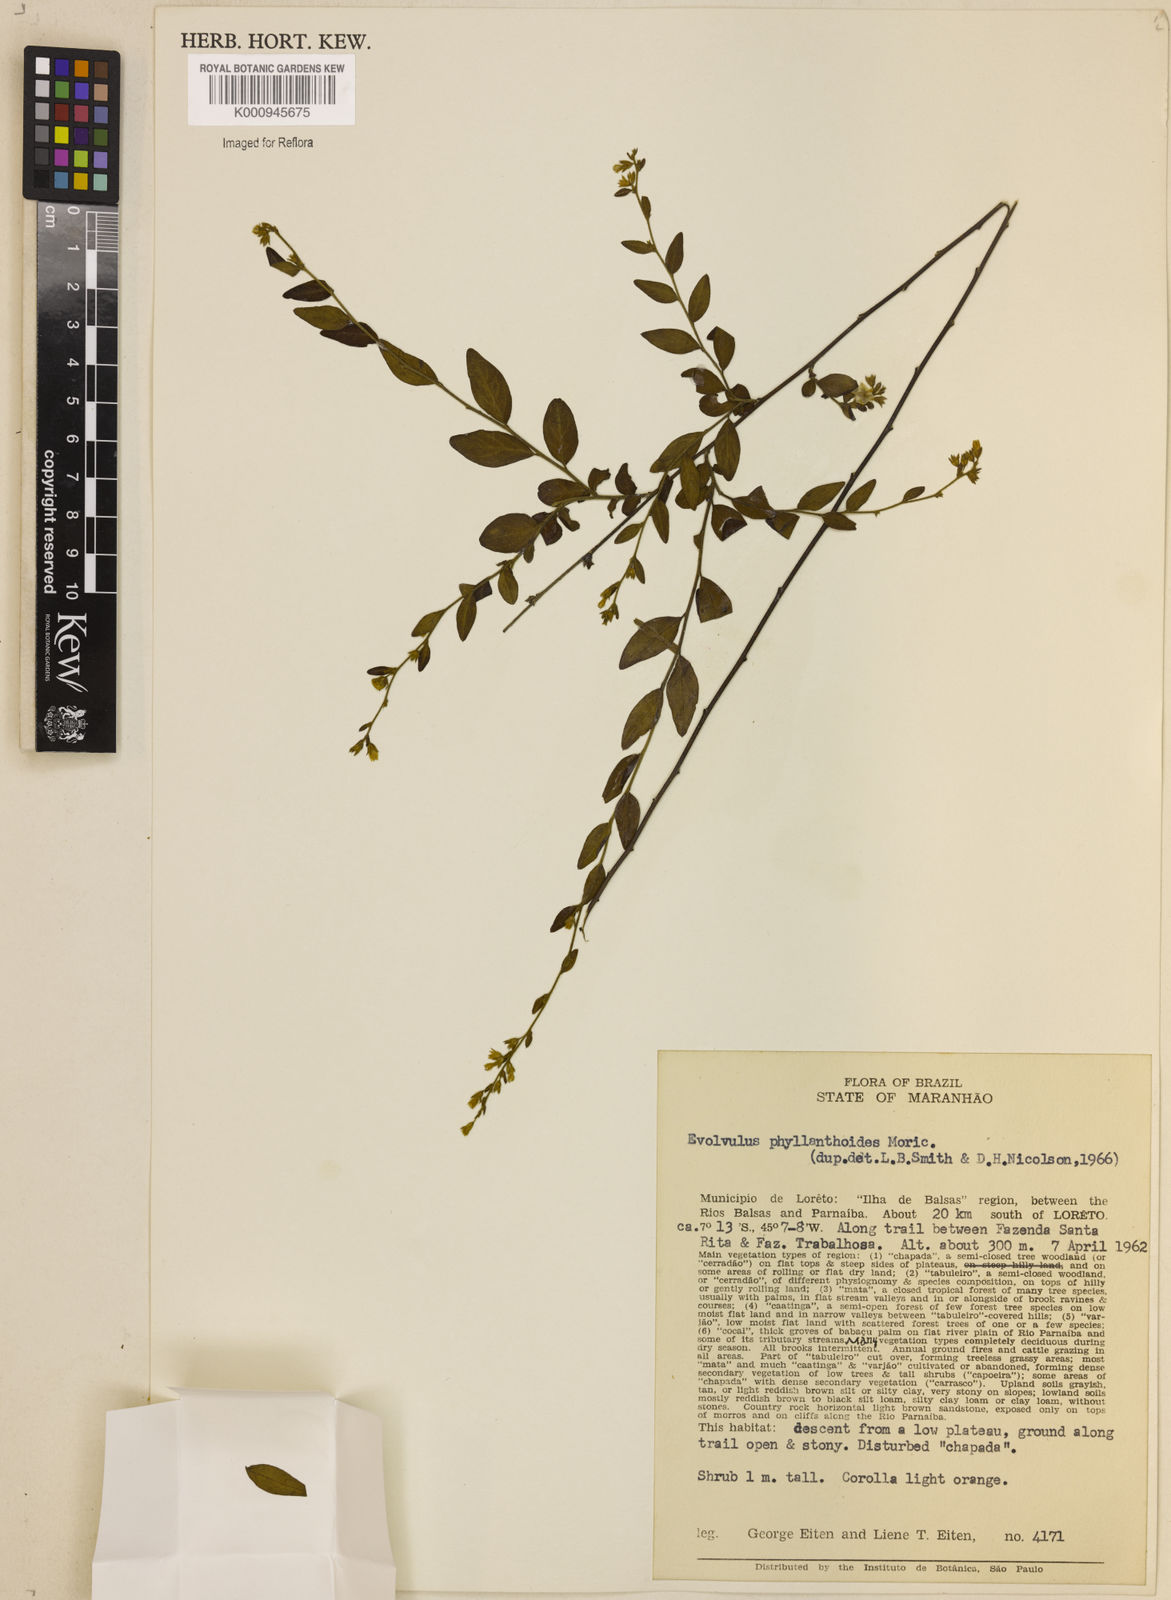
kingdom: Plantae
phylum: Tracheophyta
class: Magnoliopsida
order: Solanales
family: Convolvulaceae
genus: Evolvulus
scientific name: Evolvulus phyllanthoides
